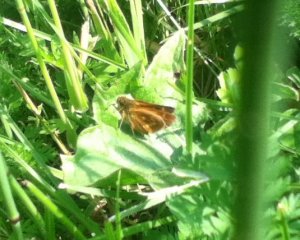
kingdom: Animalia
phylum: Arthropoda
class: Insecta
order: Lepidoptera
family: Hesperiidae
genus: Polites
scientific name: Polites
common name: Long Dash Skipper
